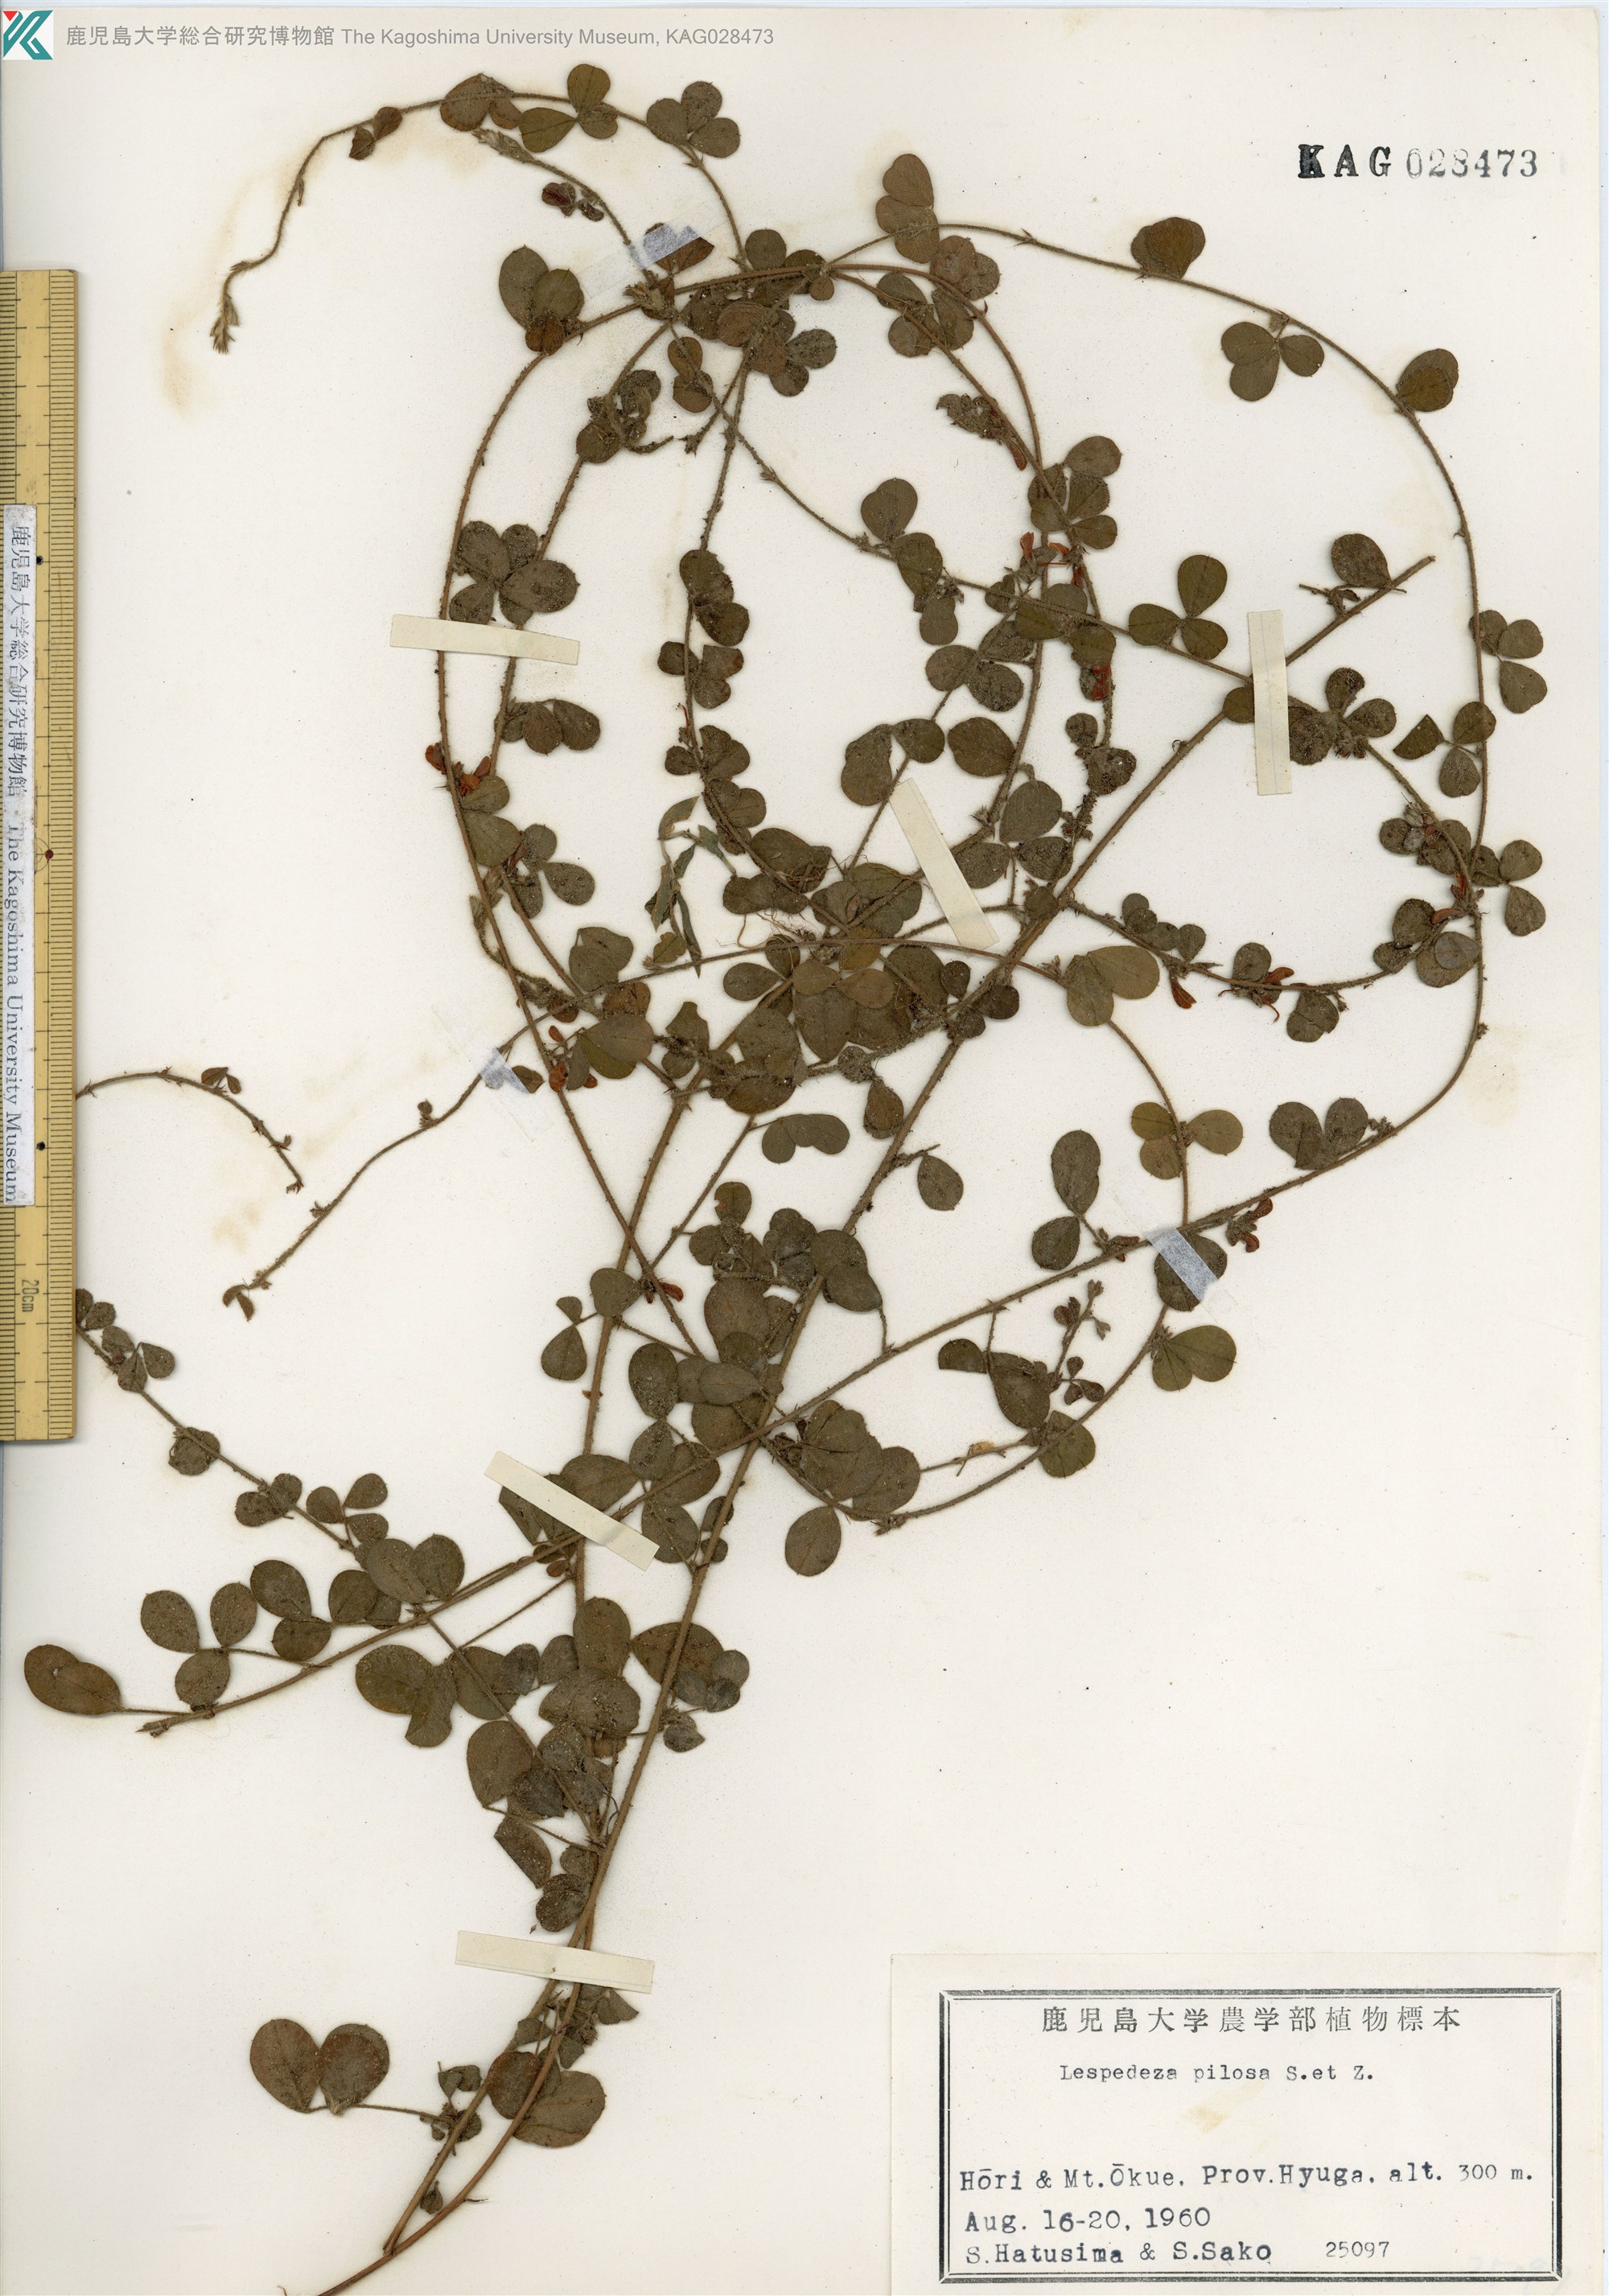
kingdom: Plantae
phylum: Tracheophyta
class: Magnoliopsida
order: Fabales
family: Fabaceae
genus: Lespedeza
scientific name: Lespedeza pilosa
